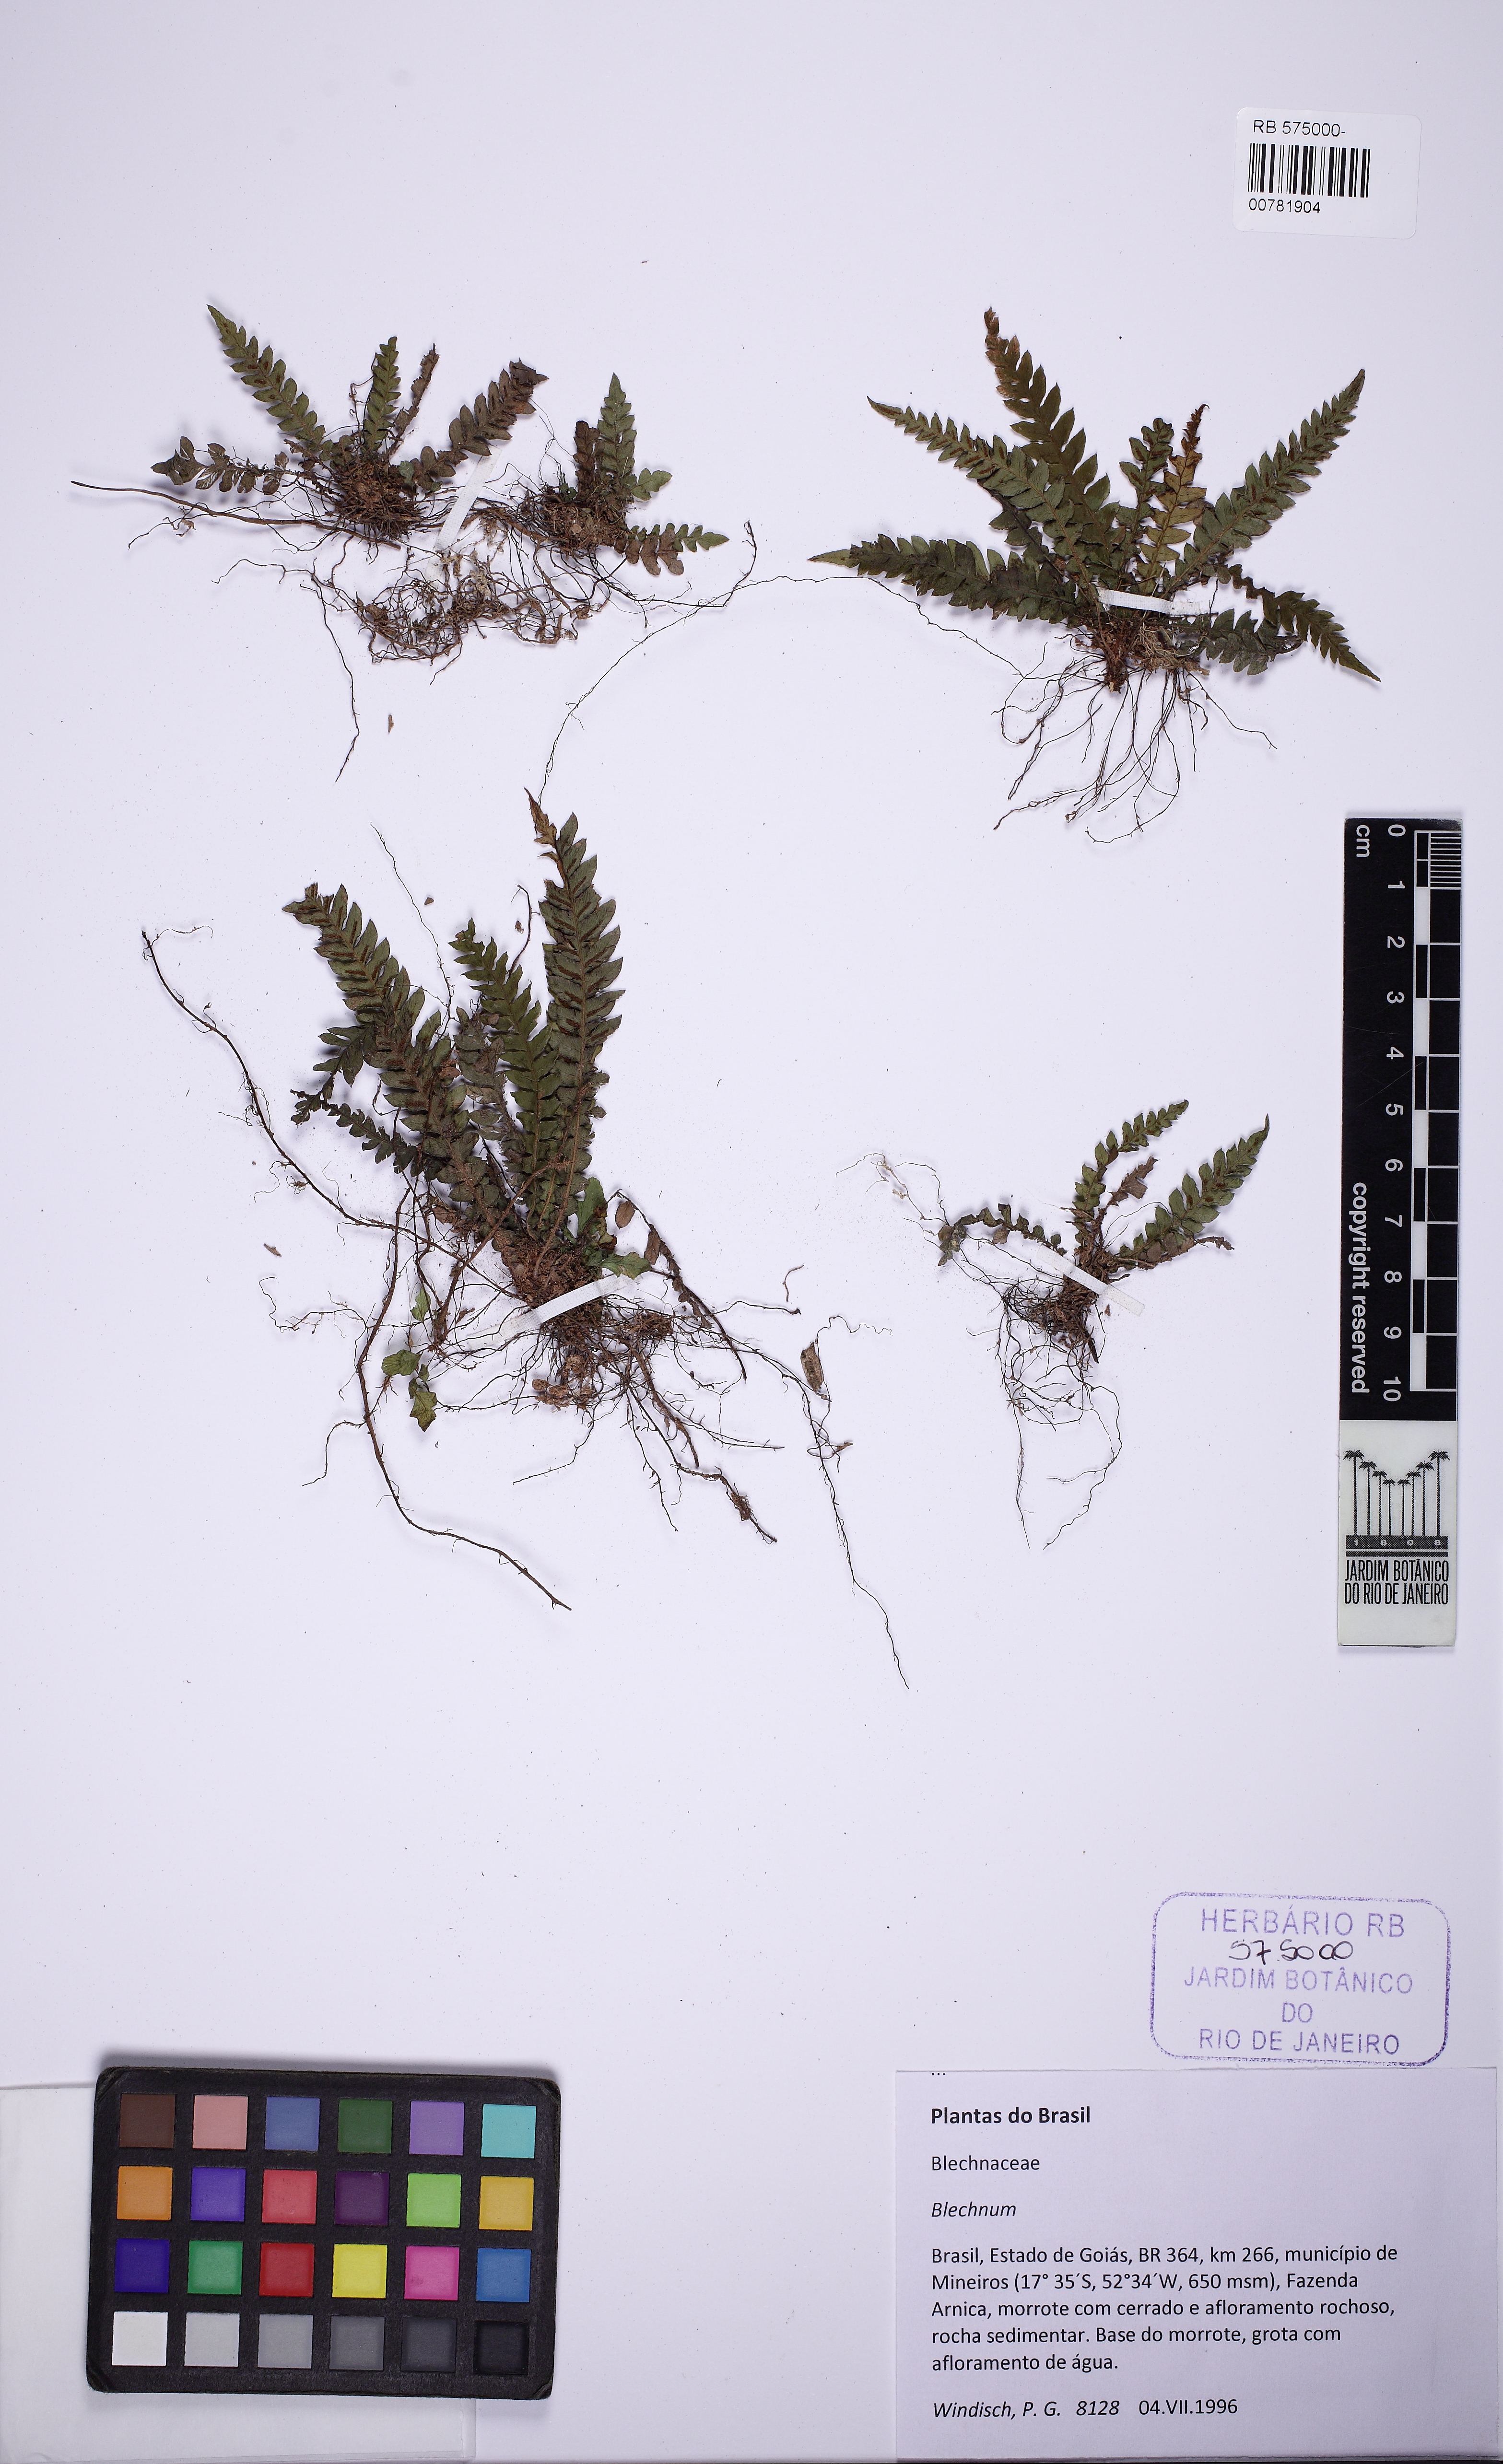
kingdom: Plantae
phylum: Tracheophyta
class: Polypodiopsida
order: Polypodiales
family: Blechnaceae
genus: Blechnum
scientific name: Blechnum asplenioides
